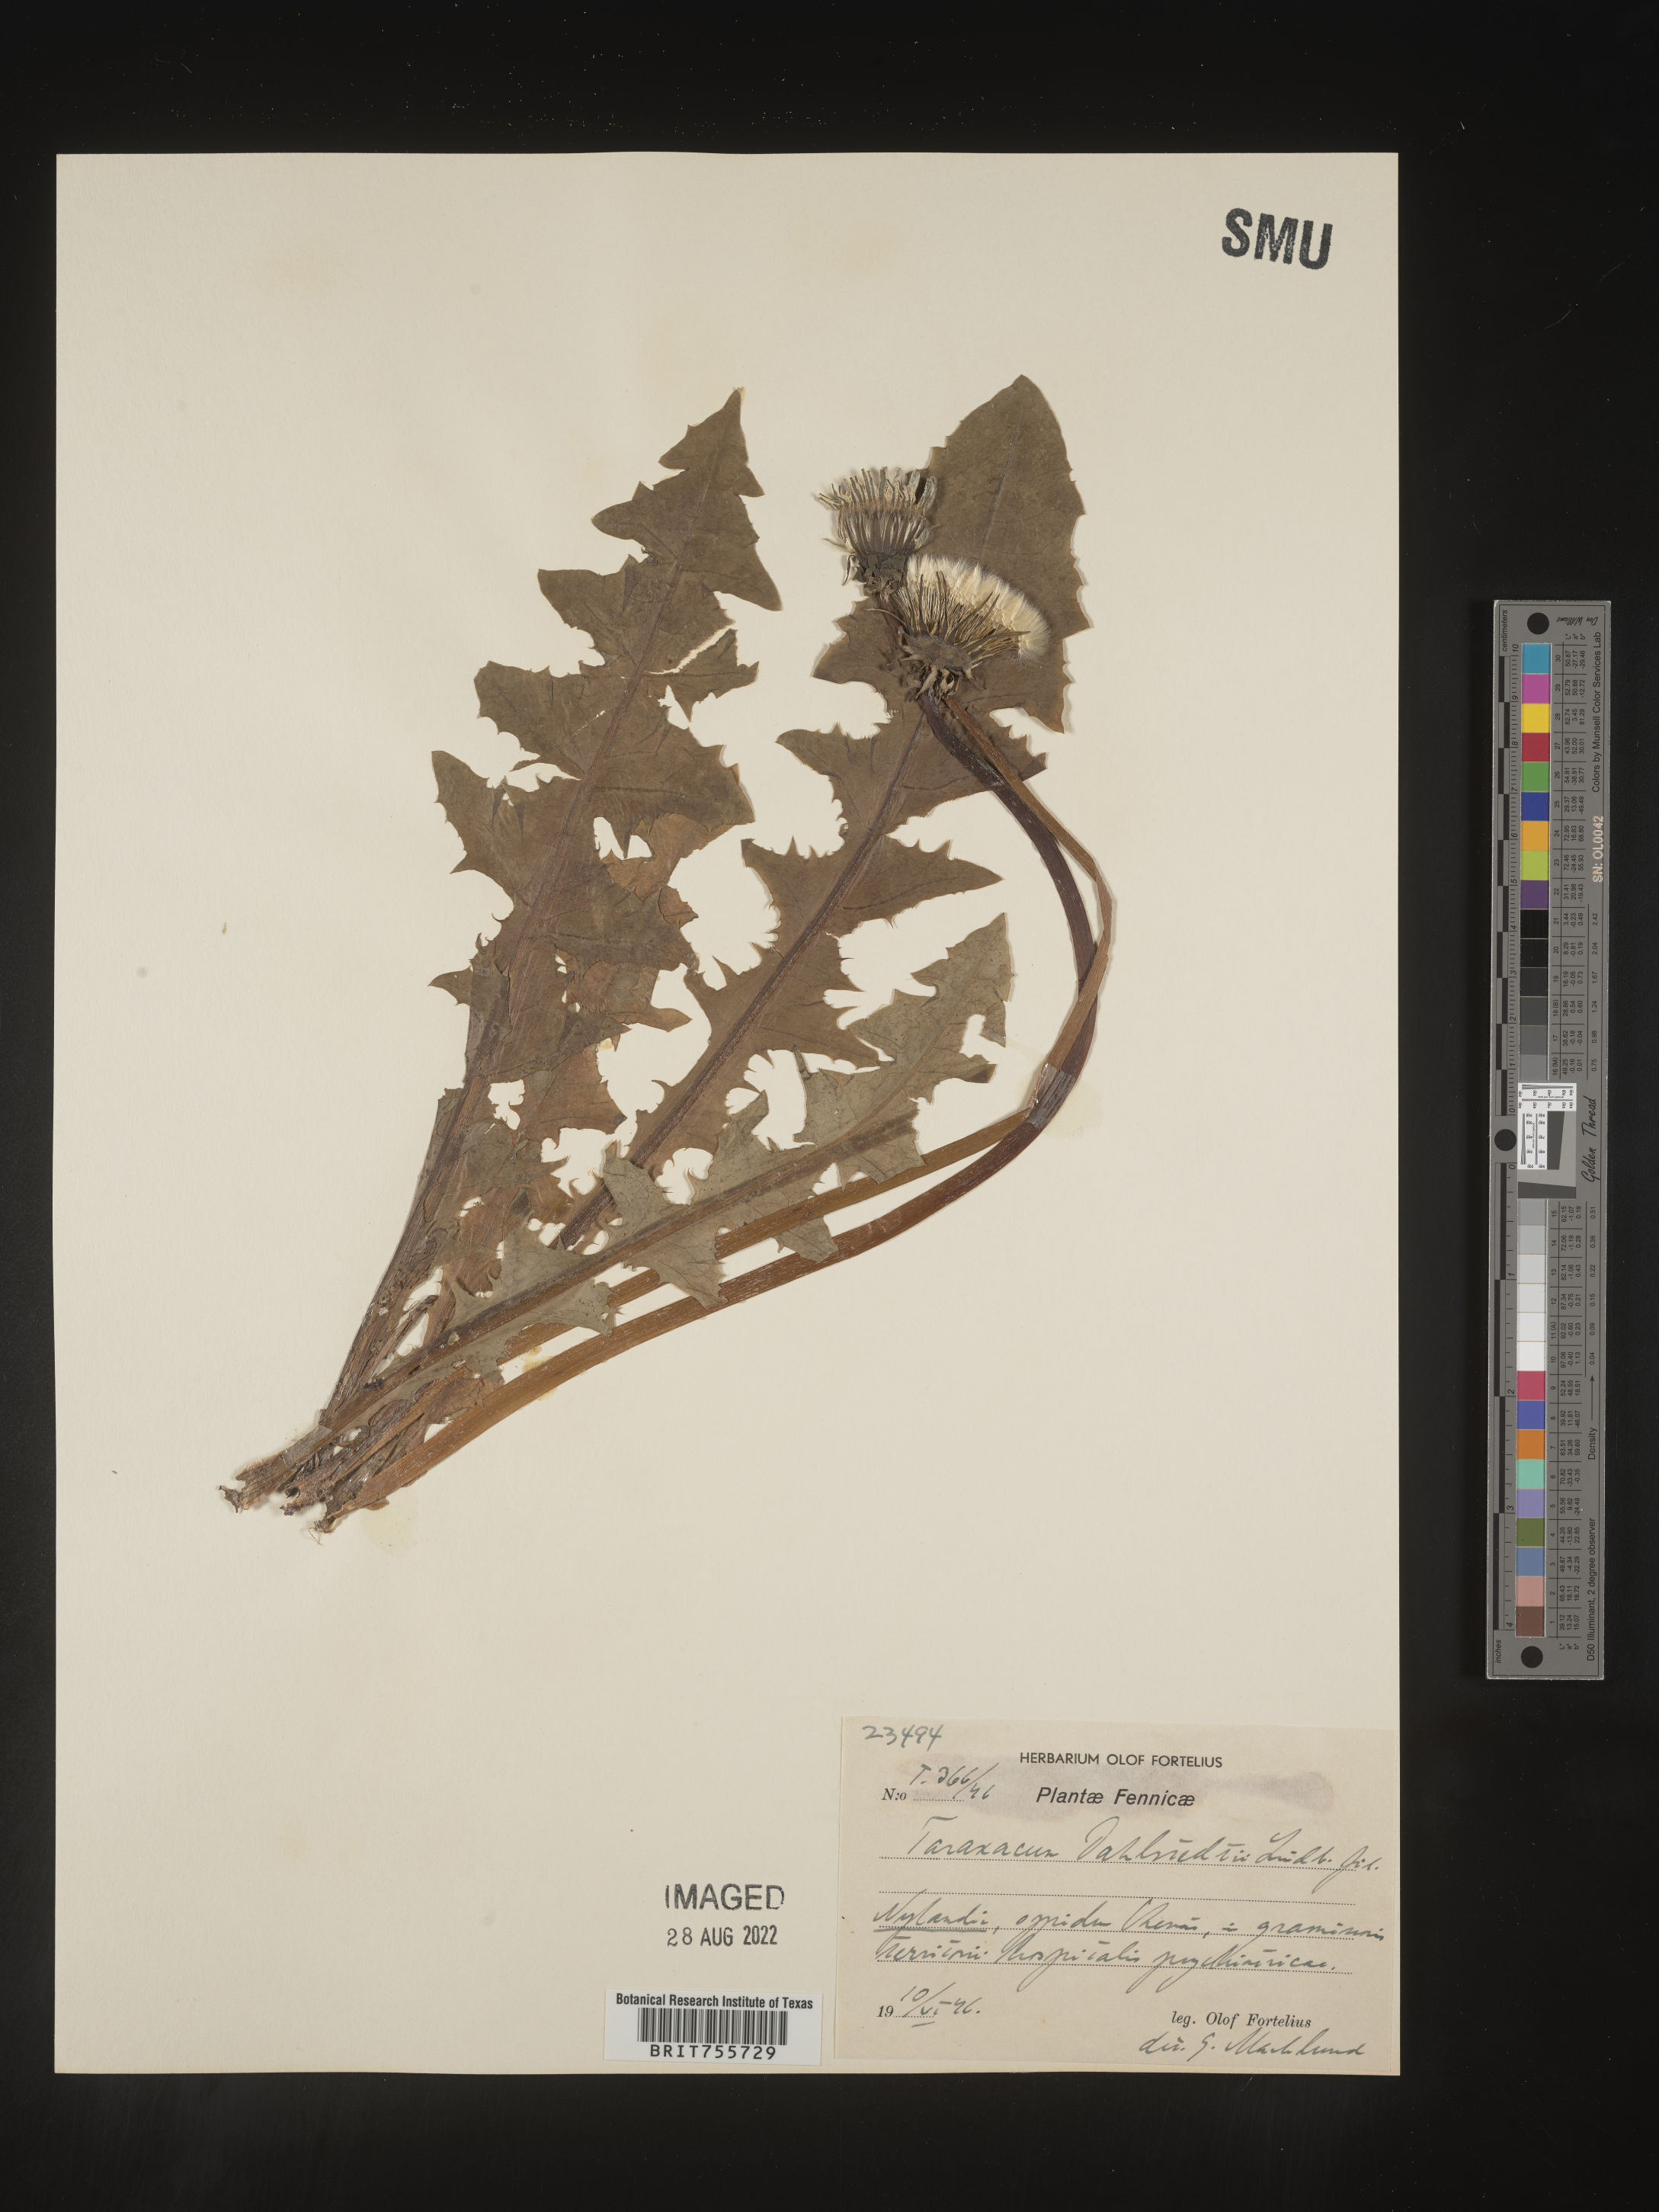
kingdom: Plantae
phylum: Tracheophyta
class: Magnoliopsida
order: Asterales
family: Asteraceae
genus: Taraxacum
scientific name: Taraxacum
